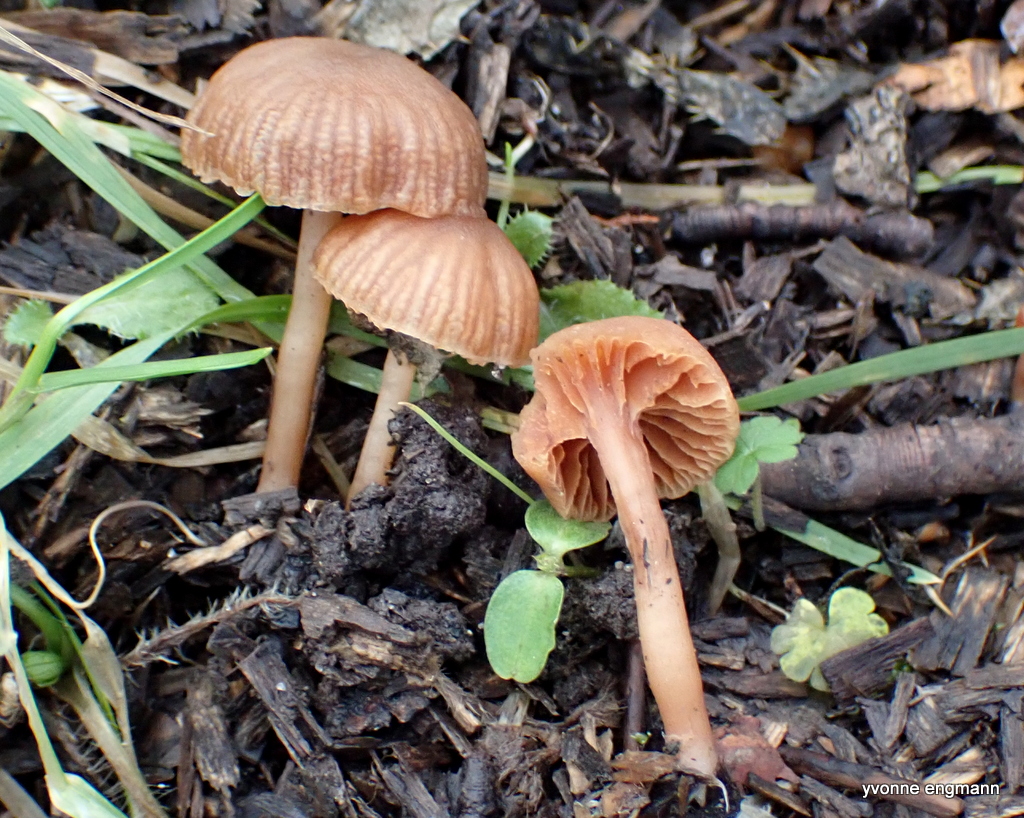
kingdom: Fungi
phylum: Basidiomycota
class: Agaricomycetes
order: Agaricales
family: Tubariaceae
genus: Tubaria
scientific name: Tubaria furfuracea
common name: kliddet fnughat
